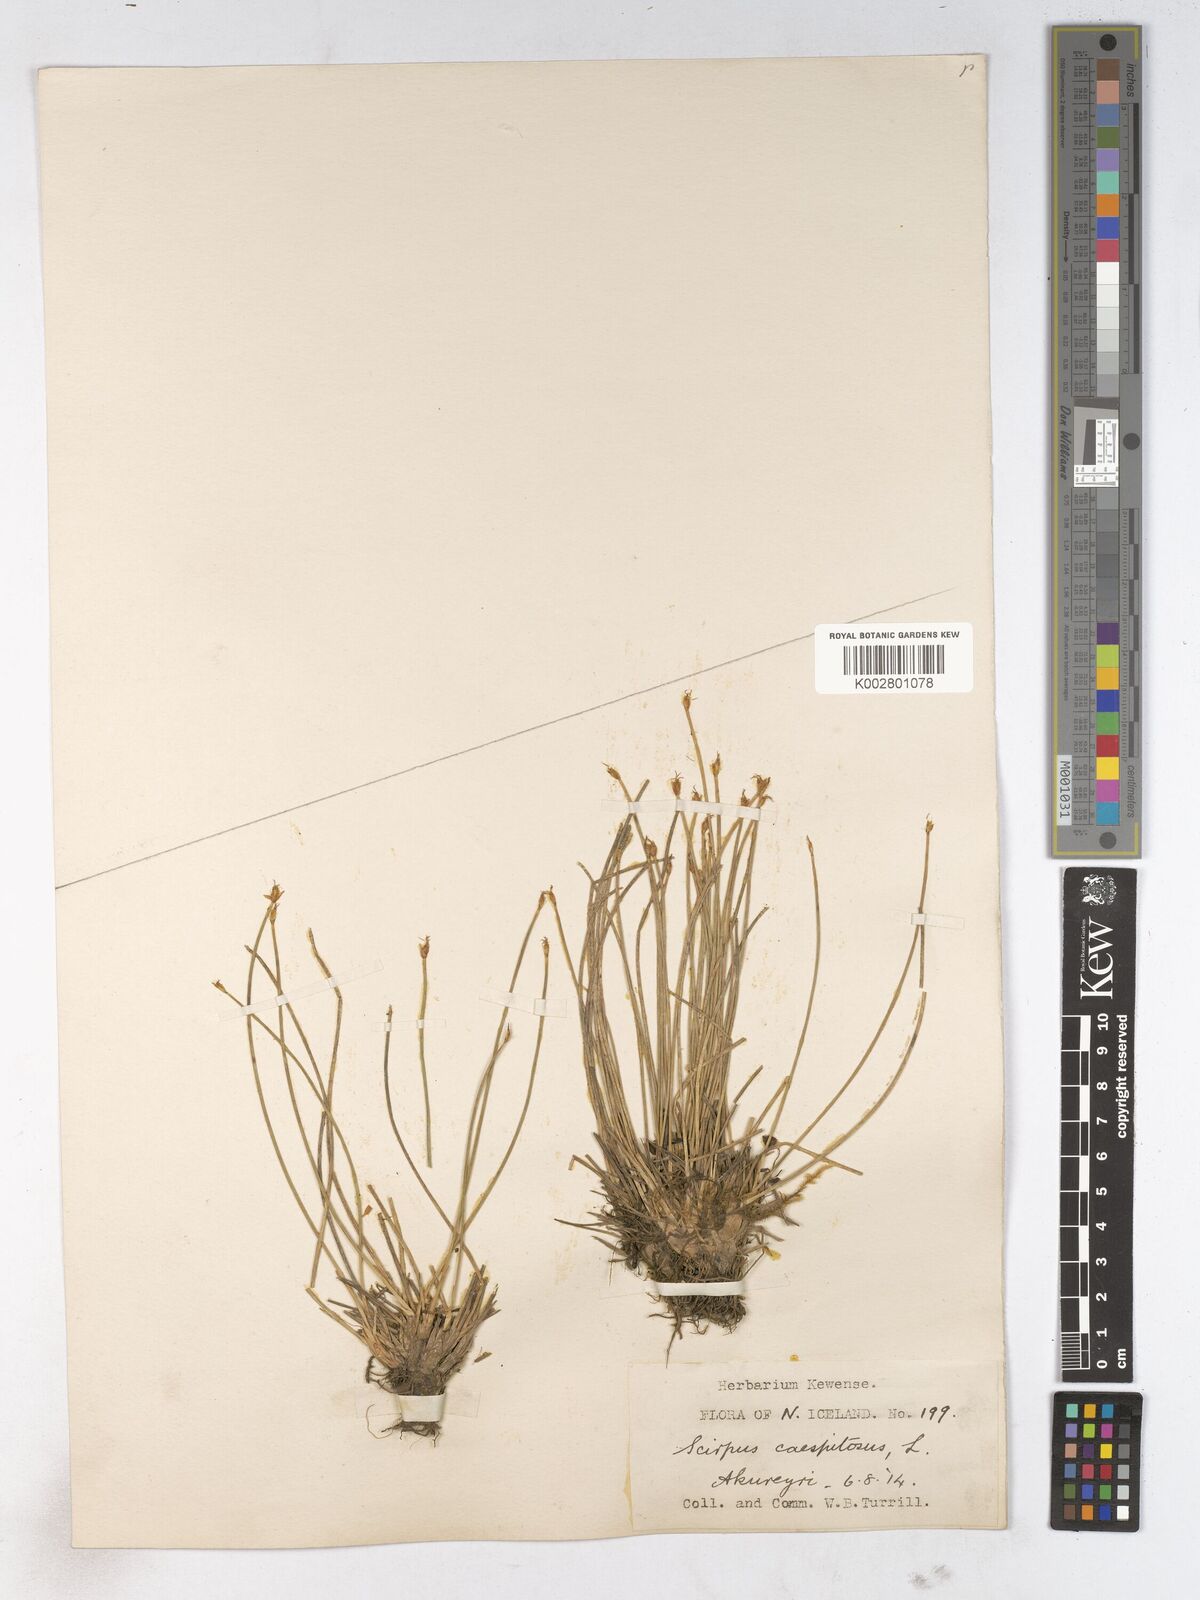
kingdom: Plantae
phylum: Tracheophyta
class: Liliopsida
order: Poales
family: Cyperaceae
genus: Trichophorum
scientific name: Trichophorum cespitosum
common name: Cespitose bulrush
